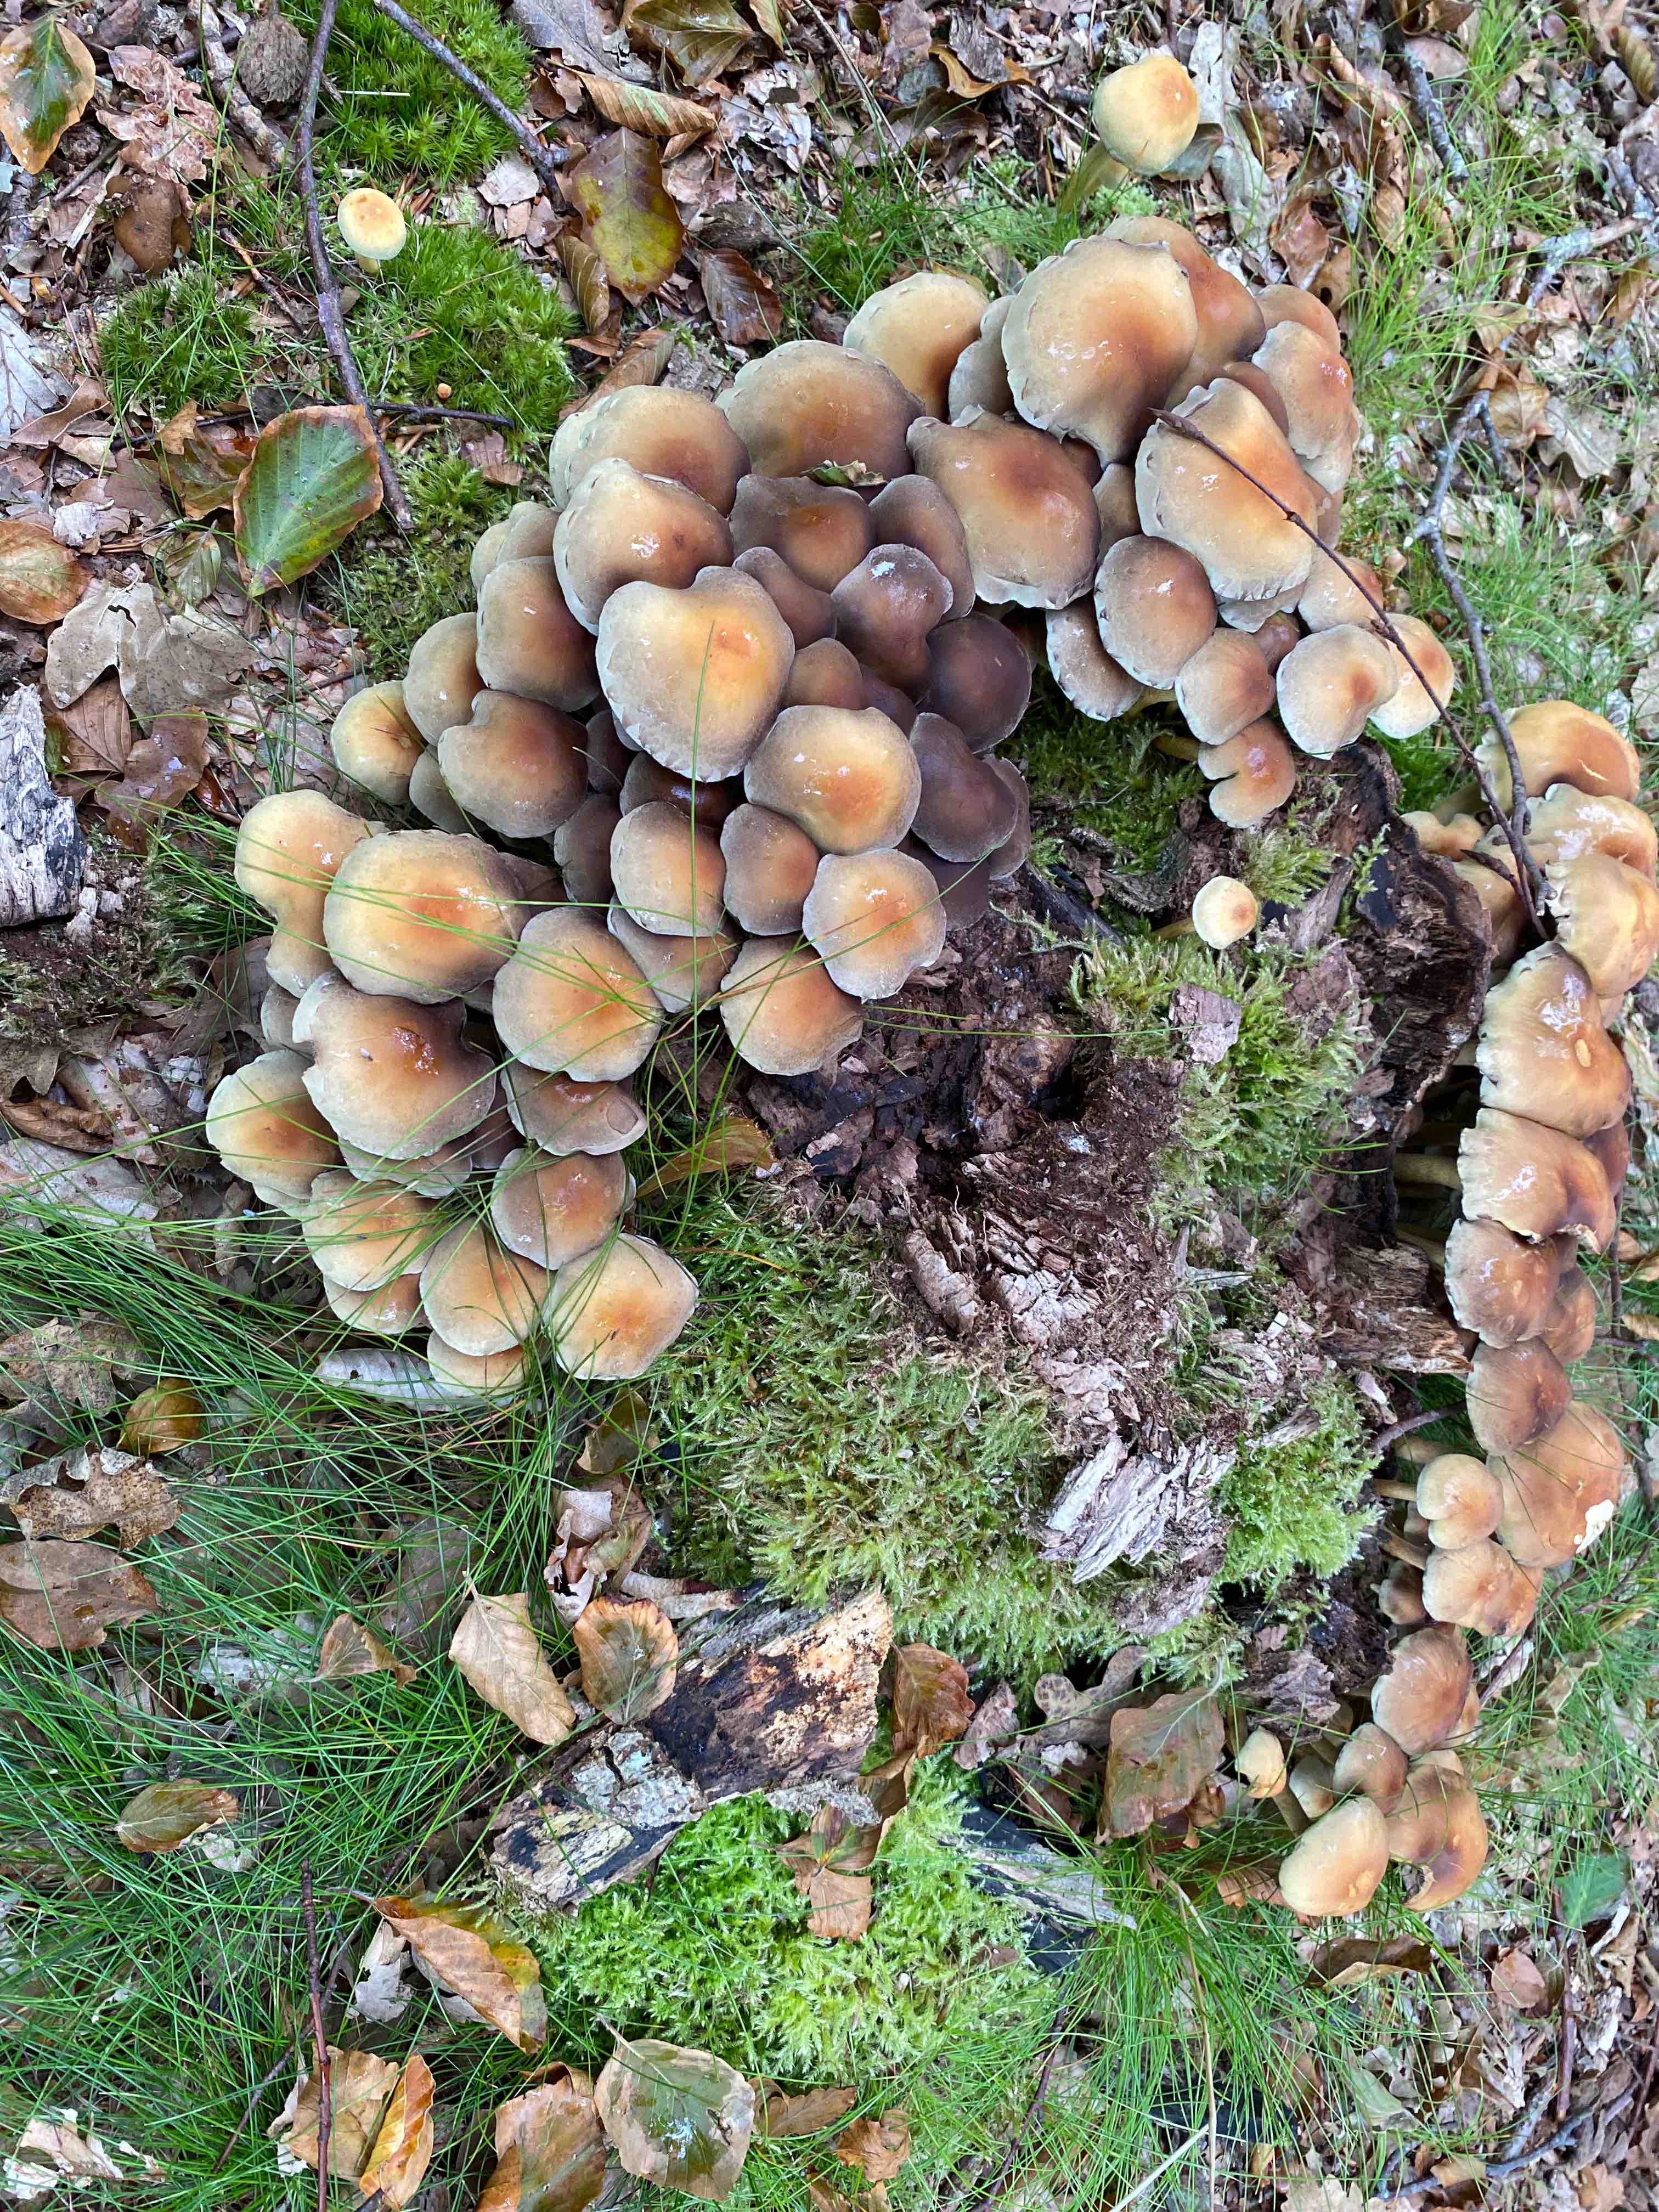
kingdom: Fungi
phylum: Basidiomycota
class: Agaricomycetes
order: Agaricales
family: Strophariaceae
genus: Hypholoma
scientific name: Hypholoma fasciculare
